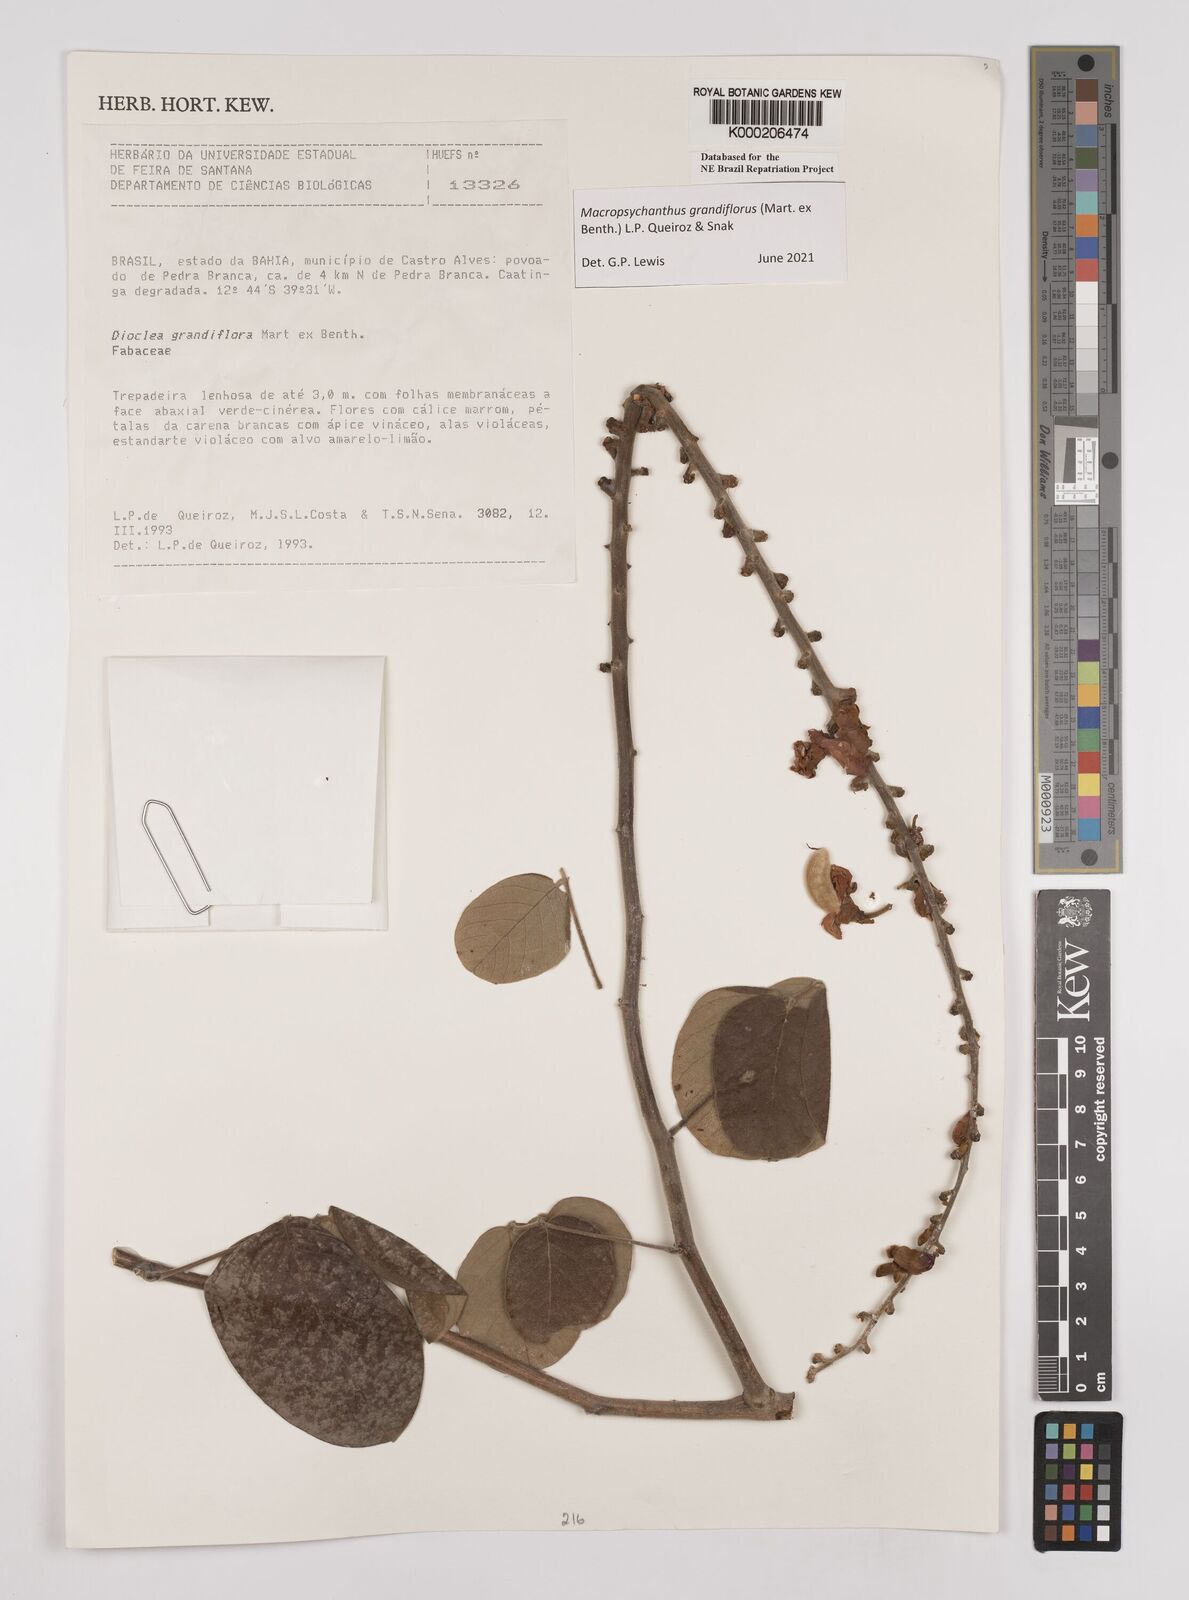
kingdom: Plantae
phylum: Tracheophyta
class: Magnoliopsida
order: Fabales
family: Fabaceae
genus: Macropsychanthus
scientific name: Macropsychanthus grandiflorus
